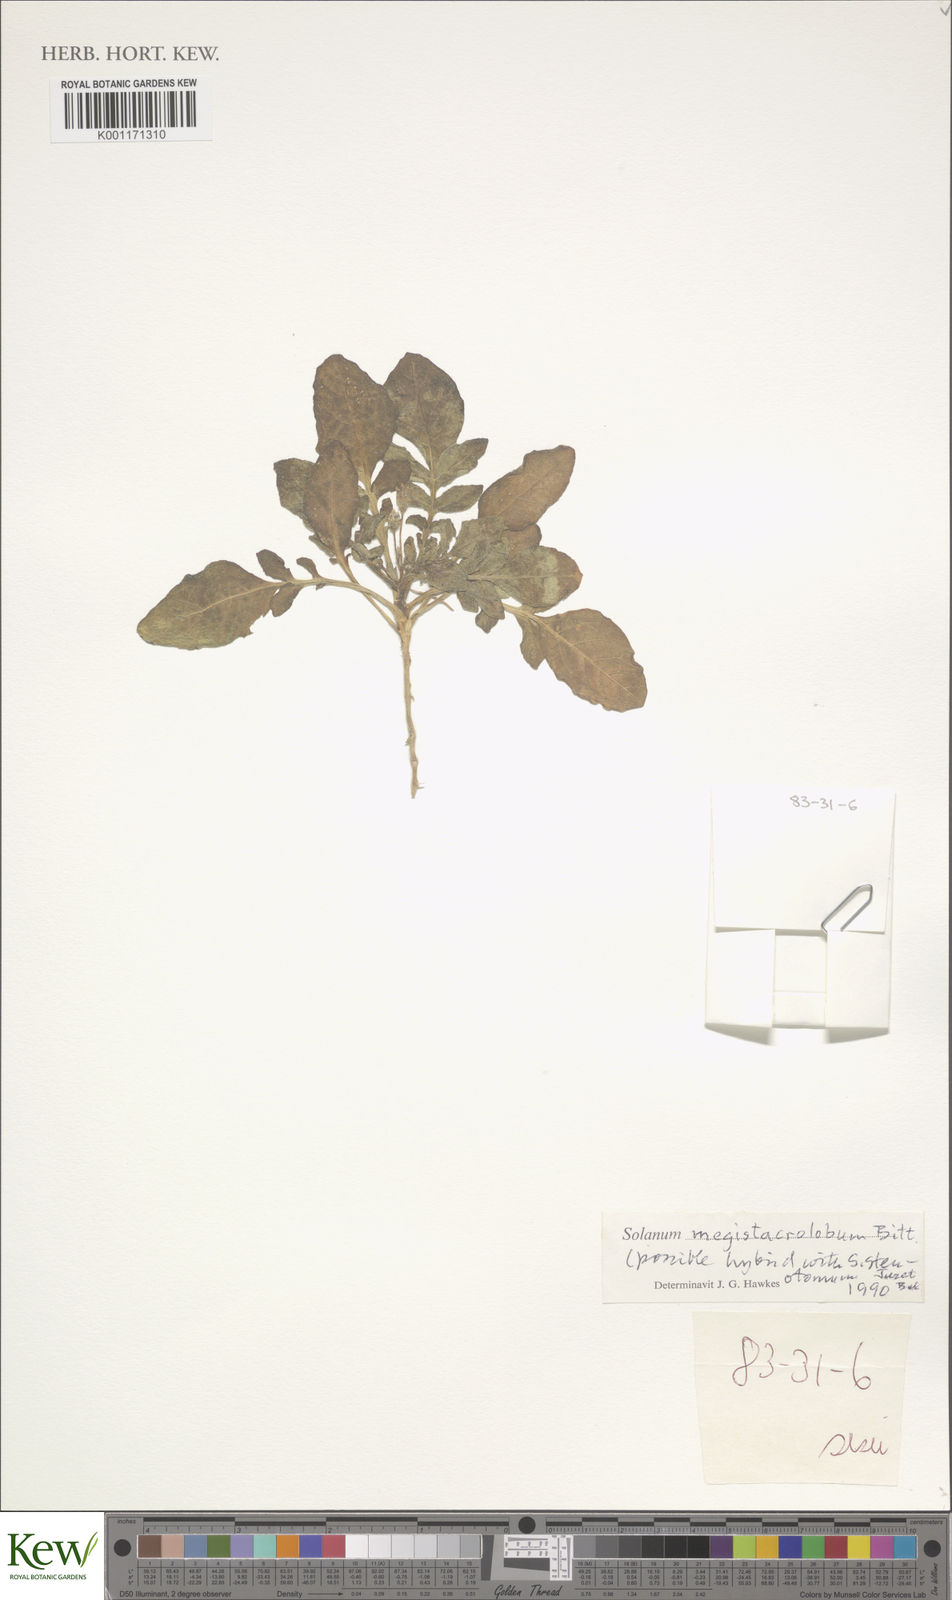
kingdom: Plantae
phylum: Tracheophyta
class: Magnoliopsida
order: Solanales
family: Solanaceae
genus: Solanum
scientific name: Solanum boliviense
